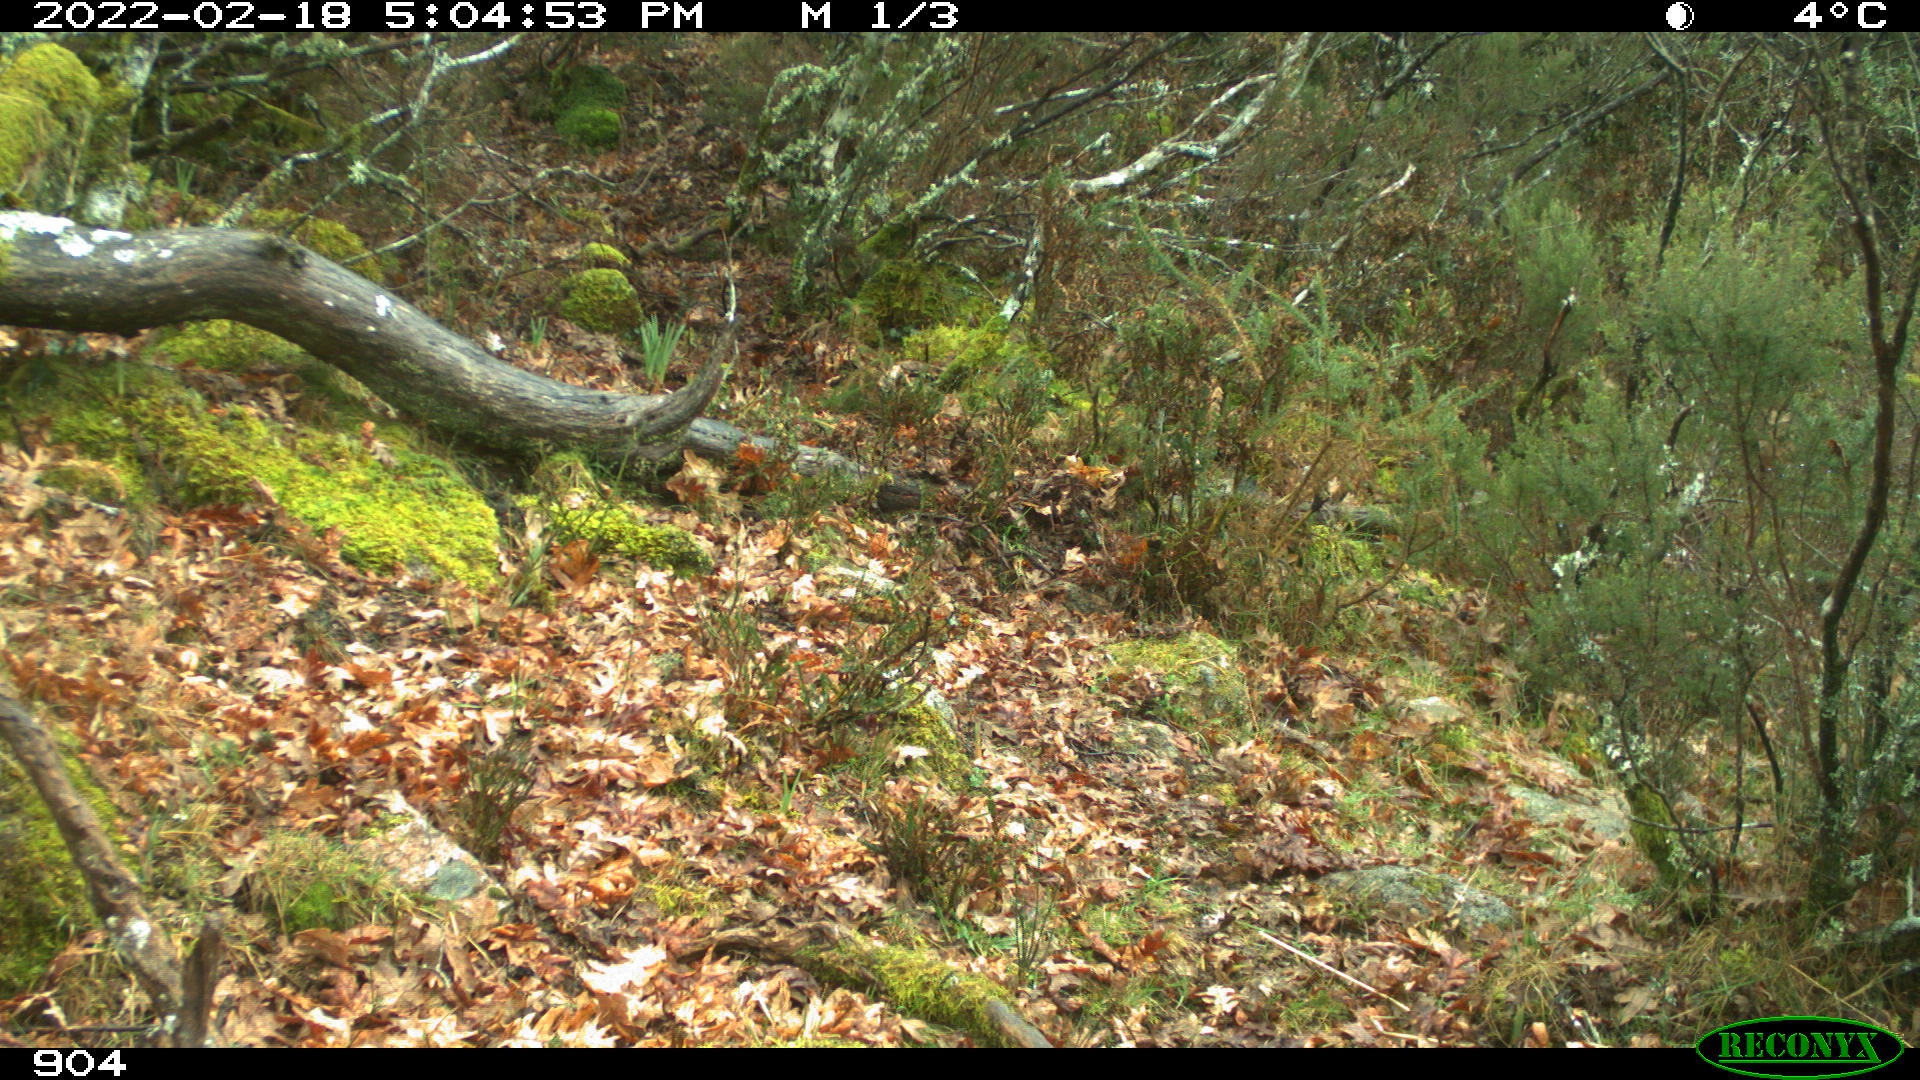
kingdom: Animalia
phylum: Chordata
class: Mammalia
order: Artiodactyla
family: Bovidae
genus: Bos
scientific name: Bos taurus
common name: Domesticated cattle
